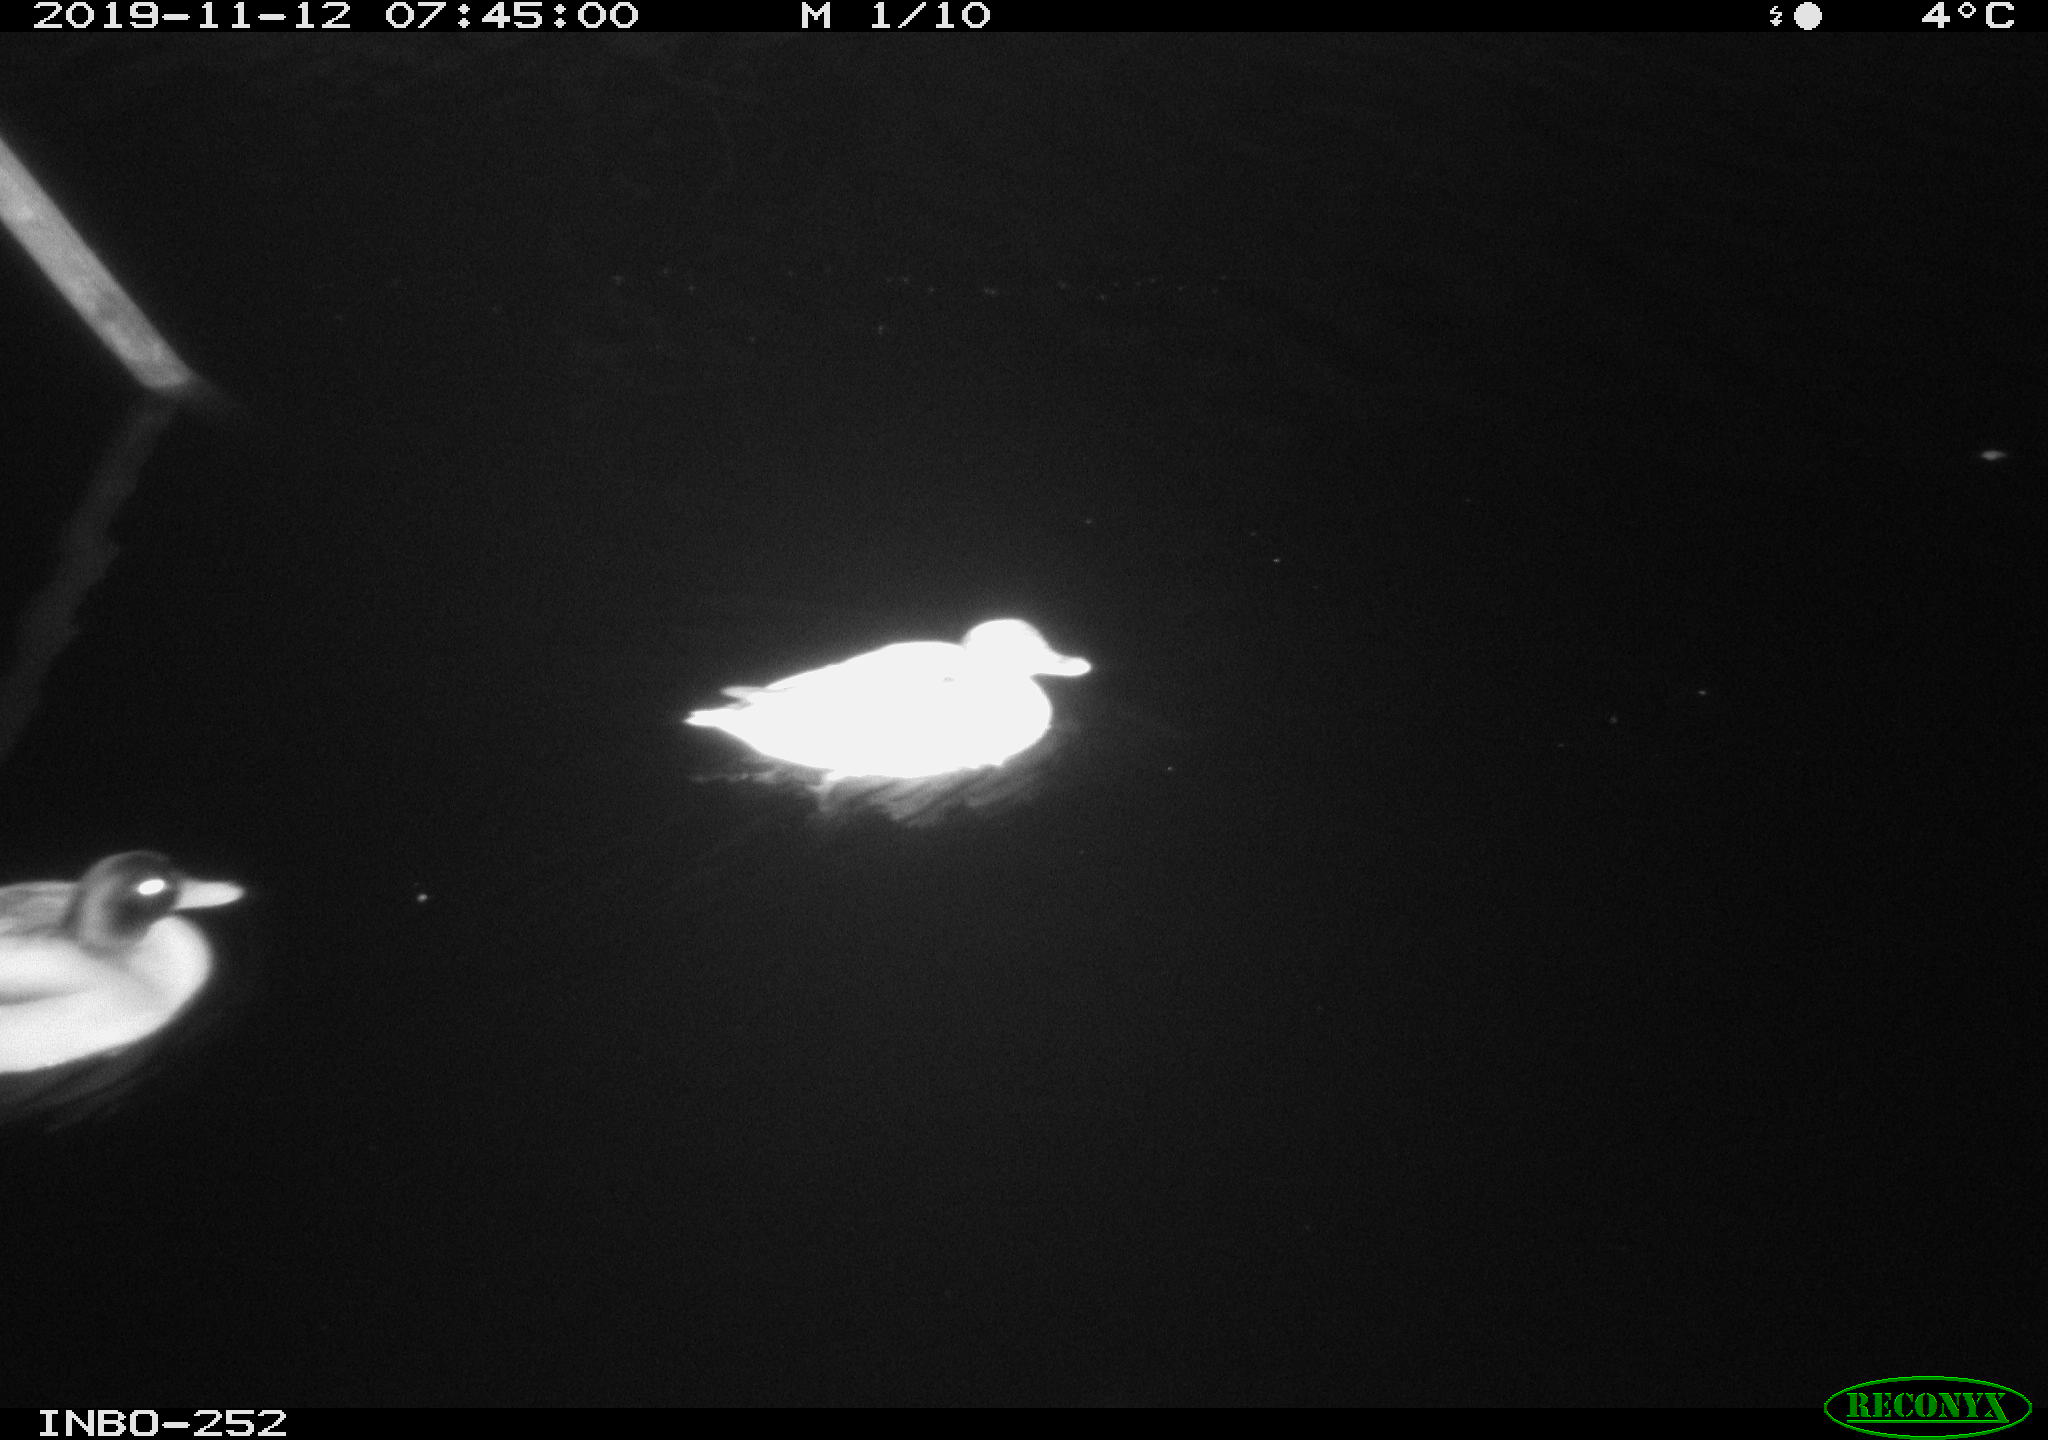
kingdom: Animalia
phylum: Chordata
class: Aves
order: Anseriformes
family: Anatidae
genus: Anas
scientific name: Anas platyrhynchos
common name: Mallard
